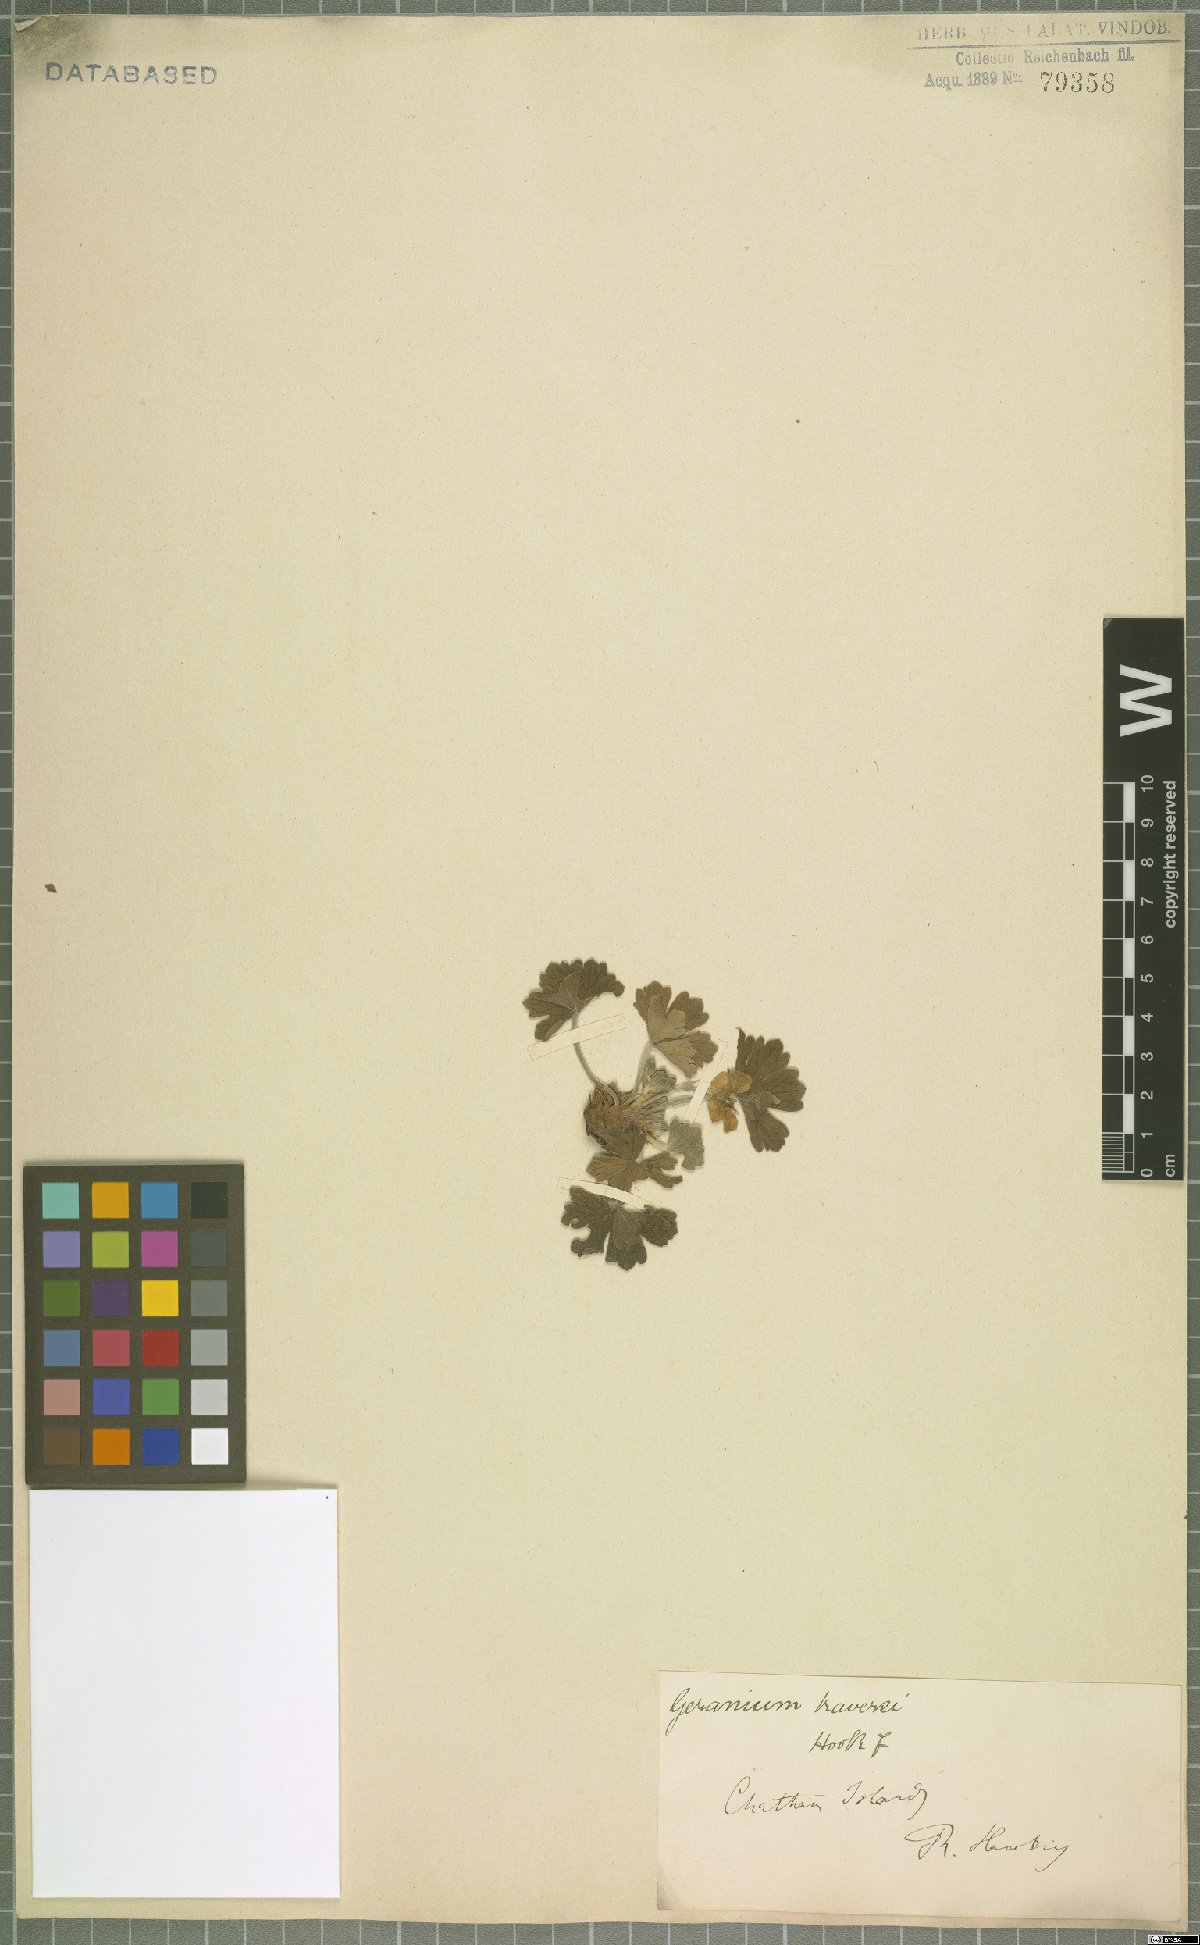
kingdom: Plantae
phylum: Tracheophyta
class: Magnoliopsida
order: Geraniales
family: Geraniaceae
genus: Geranium
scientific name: Geranium traversii
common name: Cranesbill
